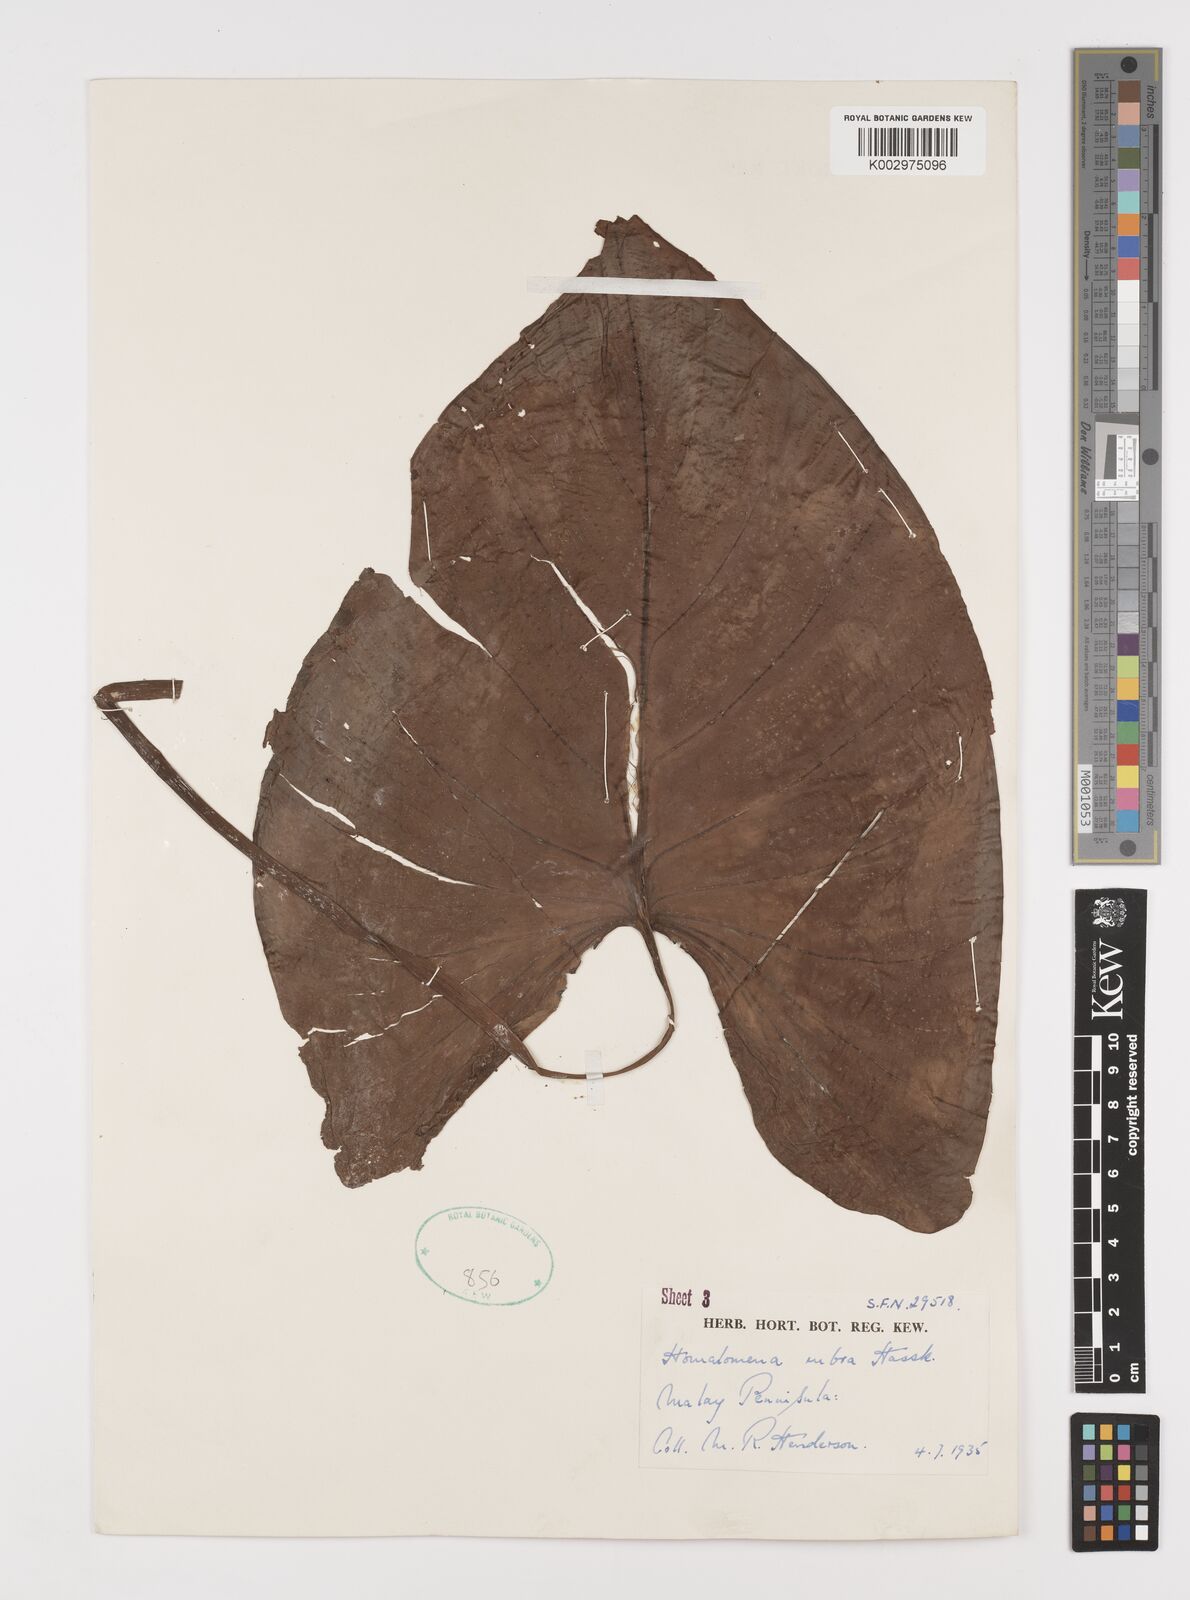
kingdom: Plantae
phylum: Tracheophyta
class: Liliopsida
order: Alismatales
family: Araceae
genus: Homalomena
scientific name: Homalomena pendula
